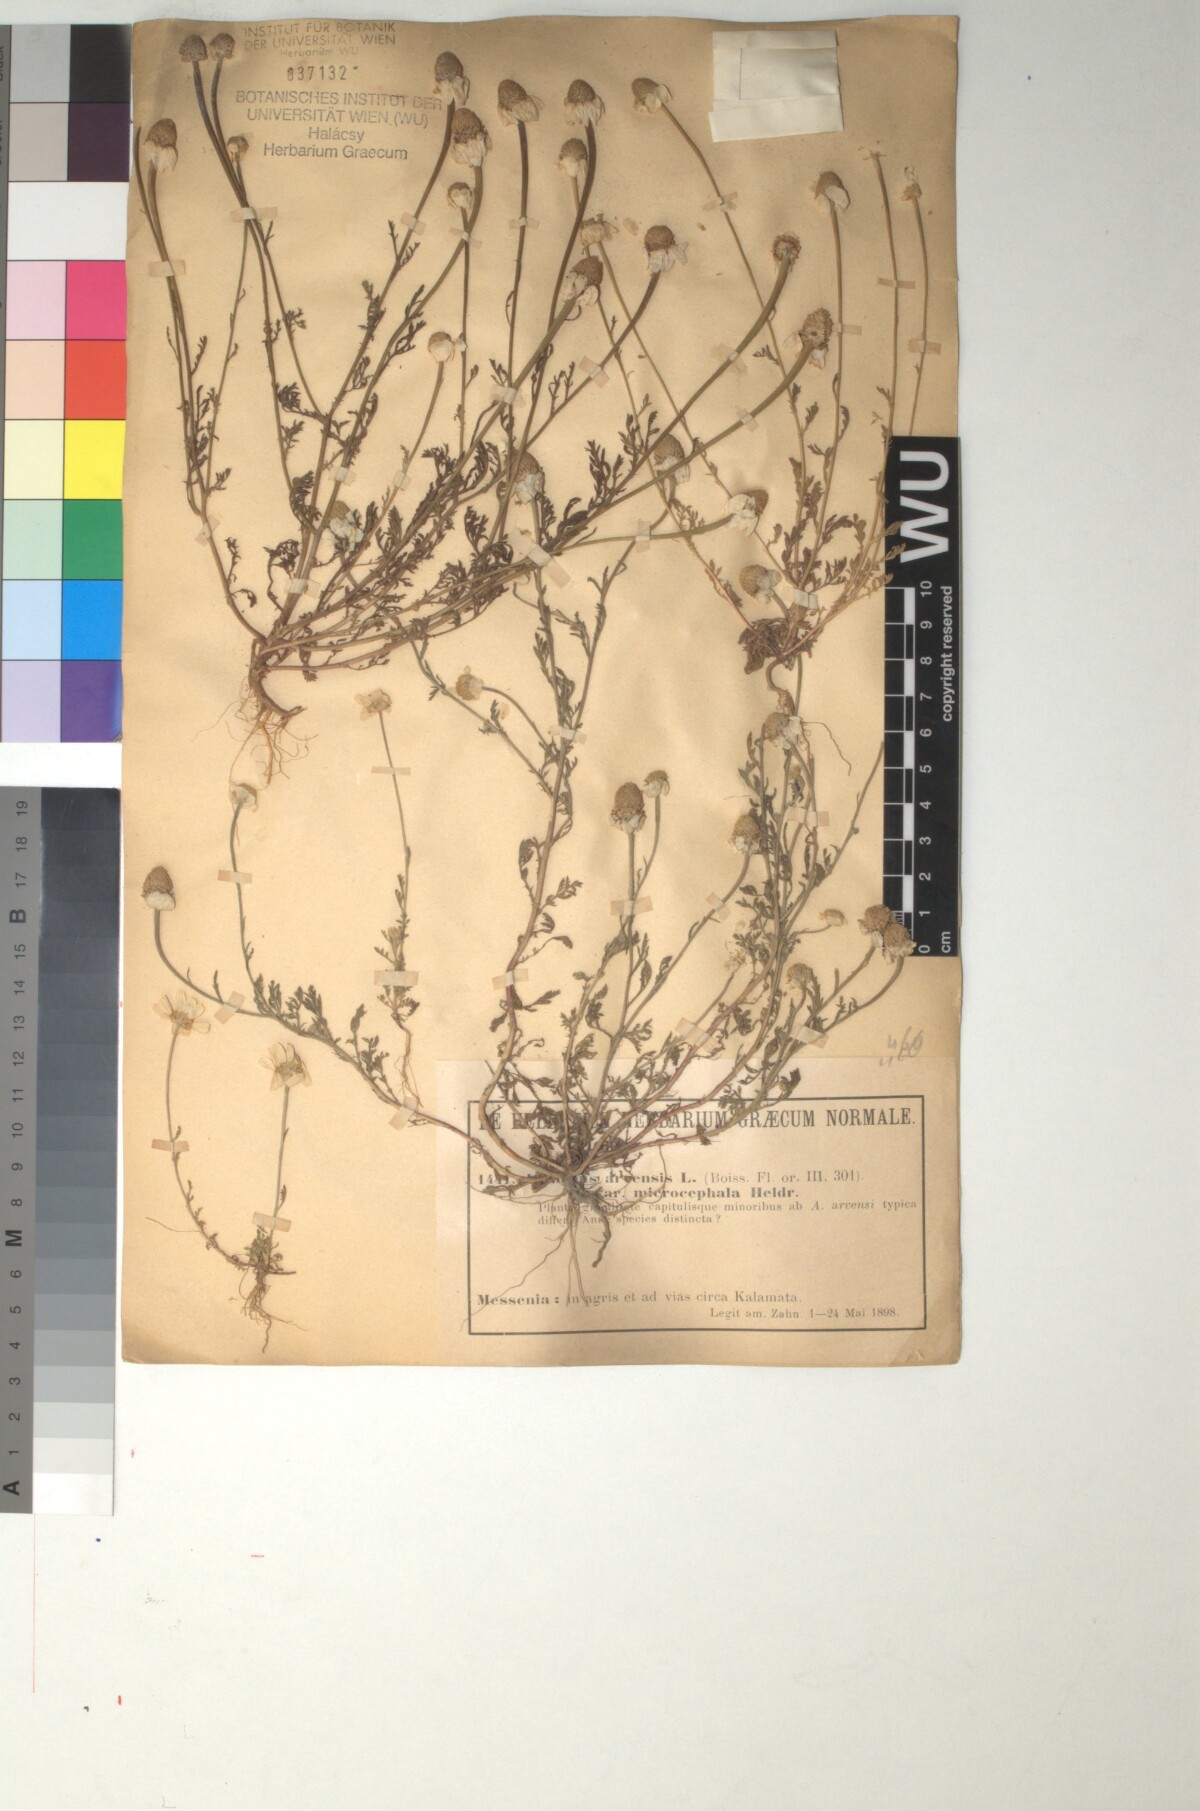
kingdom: Plantae
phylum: Tracheophyta
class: Magnoliopsida
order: Asterales
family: Asteraceae
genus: Anthemis
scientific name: Anthemis arvensis
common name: Corn chamomile
